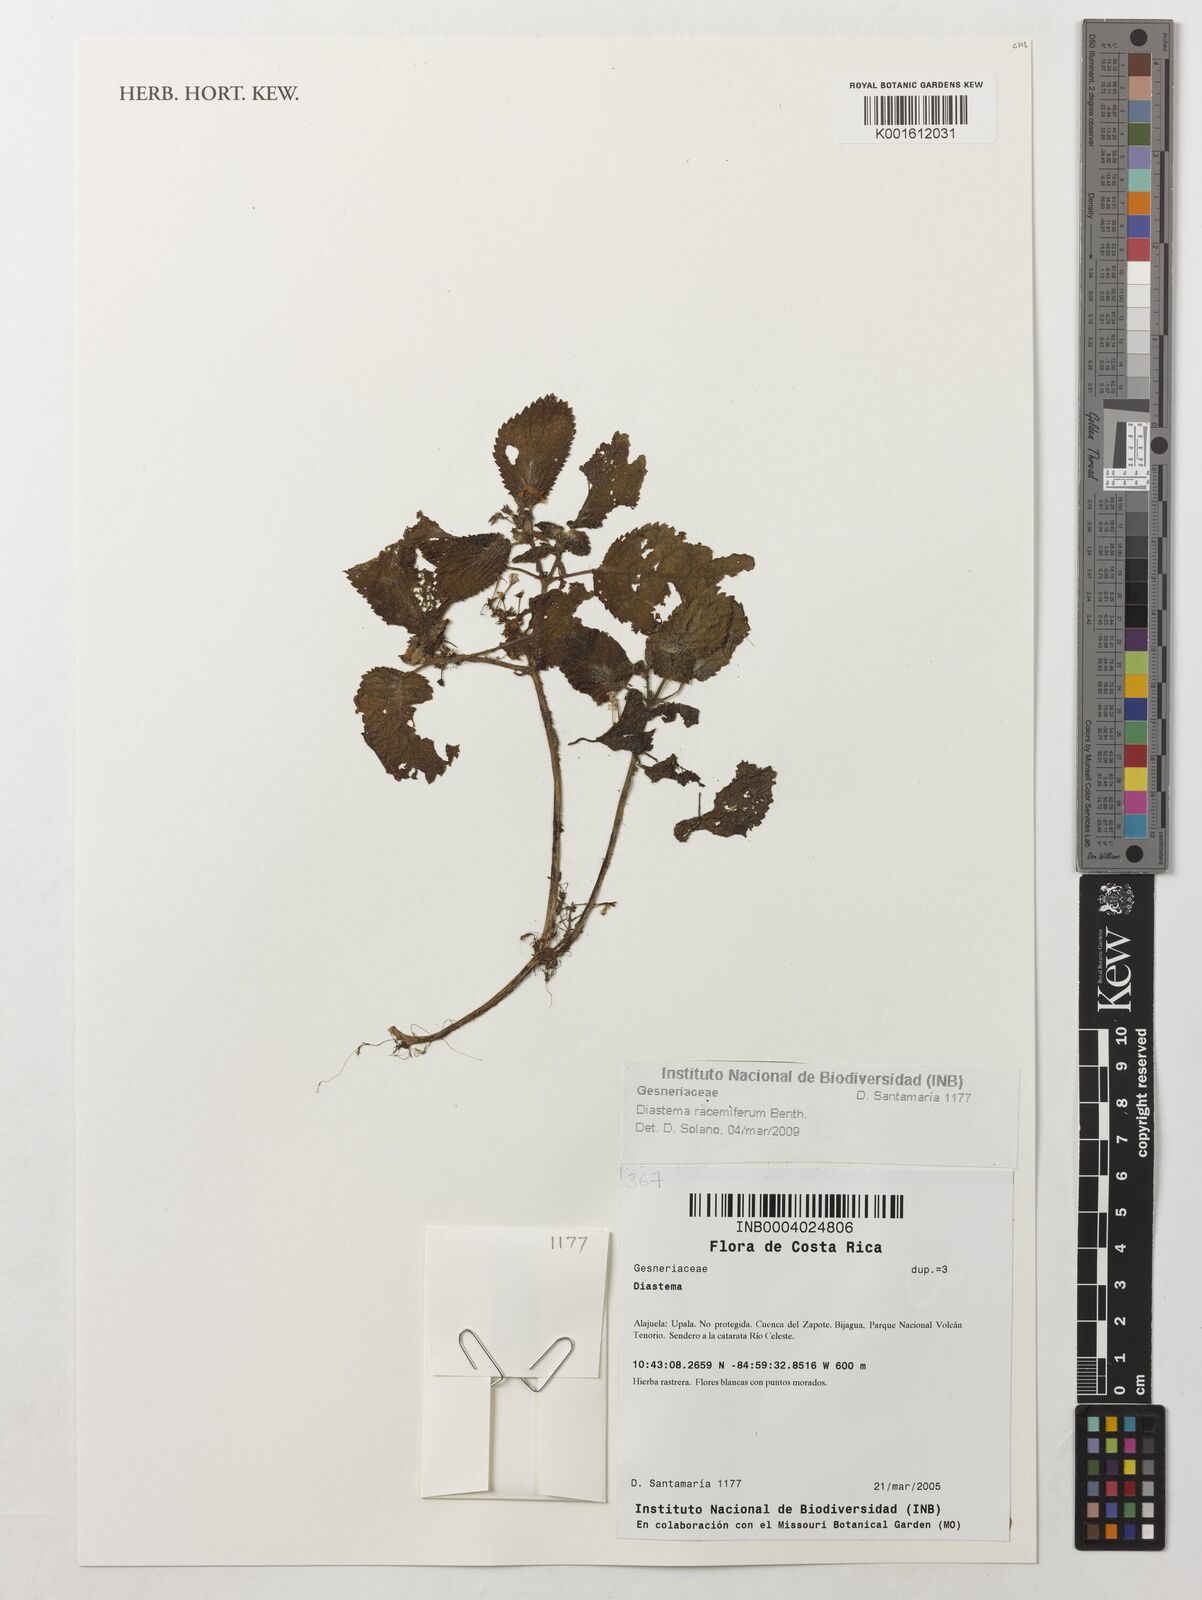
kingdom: Plantae
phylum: Tracheophyta
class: Magnoliopsida
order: Lamiales
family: Gesneriaceae
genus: Diastema
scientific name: Diastema racemiferum
